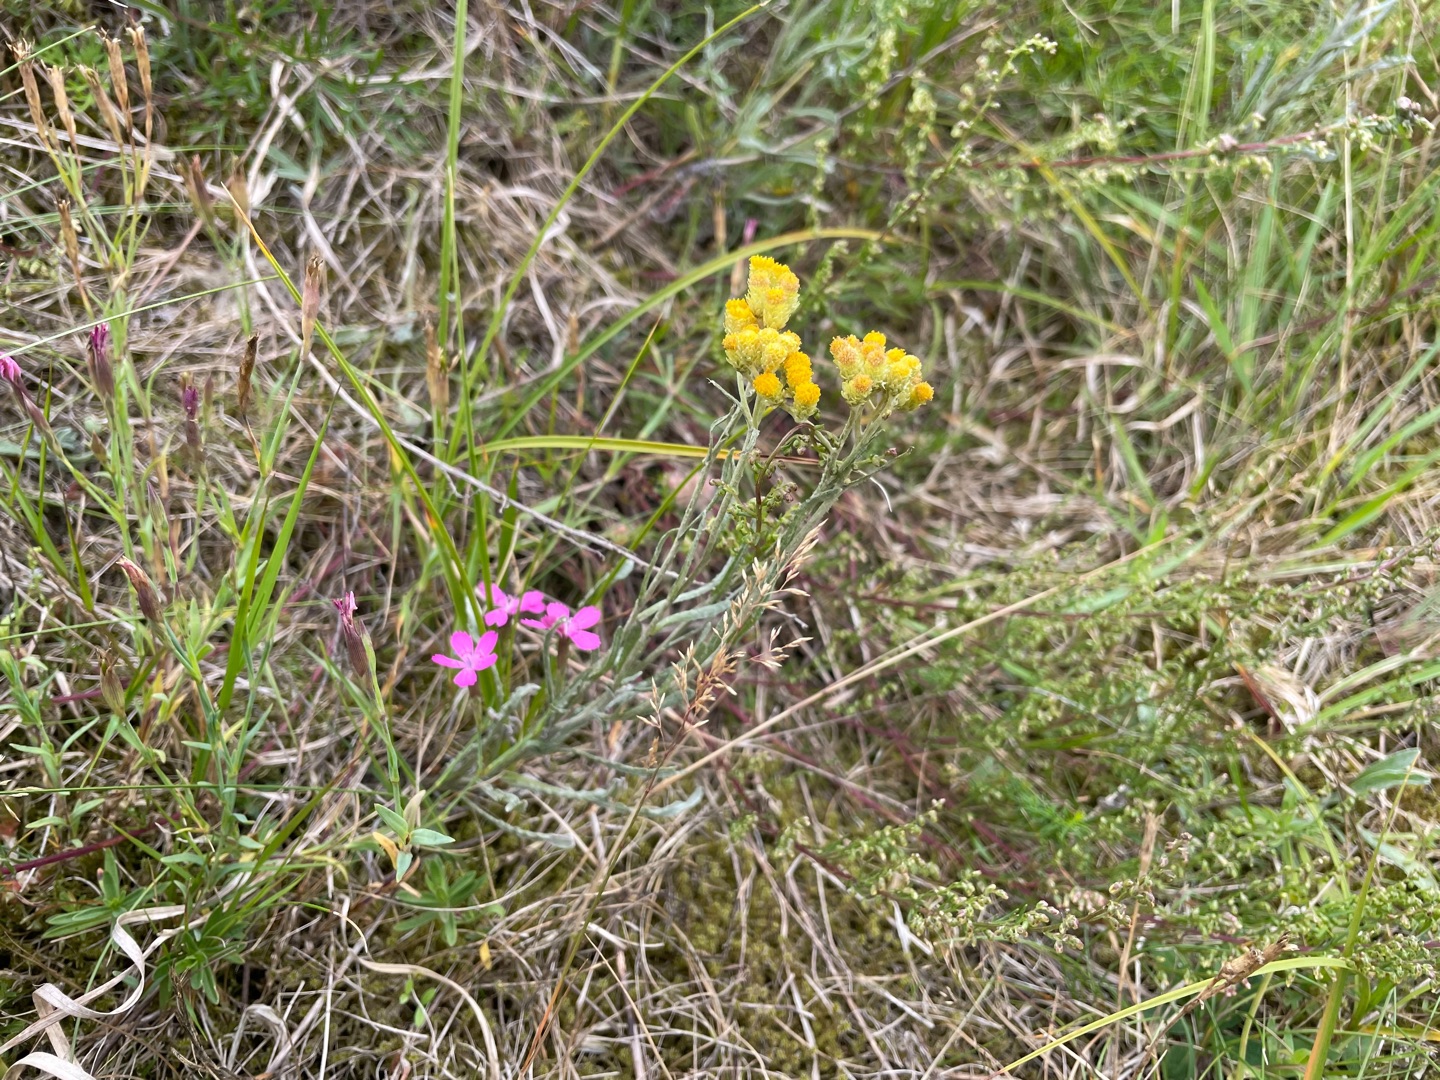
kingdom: Plantae
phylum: Tracheophyta
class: Magnoliopsida
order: Caryophyllales
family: Caryophyllaceae
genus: Dianthus
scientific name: Dianthus deltoides
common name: Bakke-nellike
